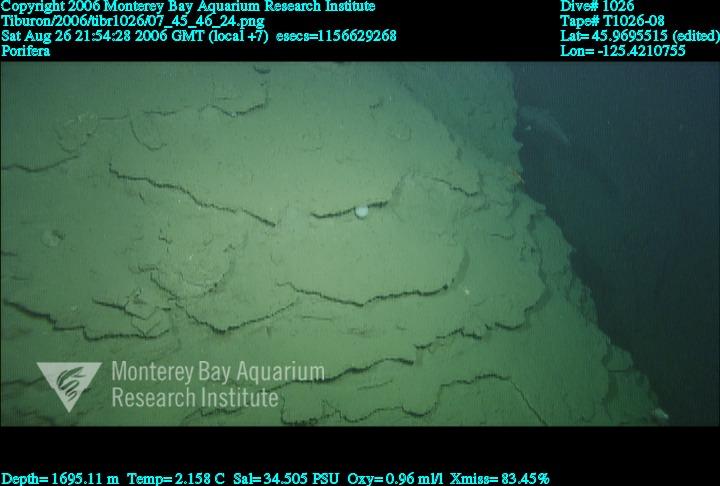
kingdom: Animalia
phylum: Porifera
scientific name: Porifera
